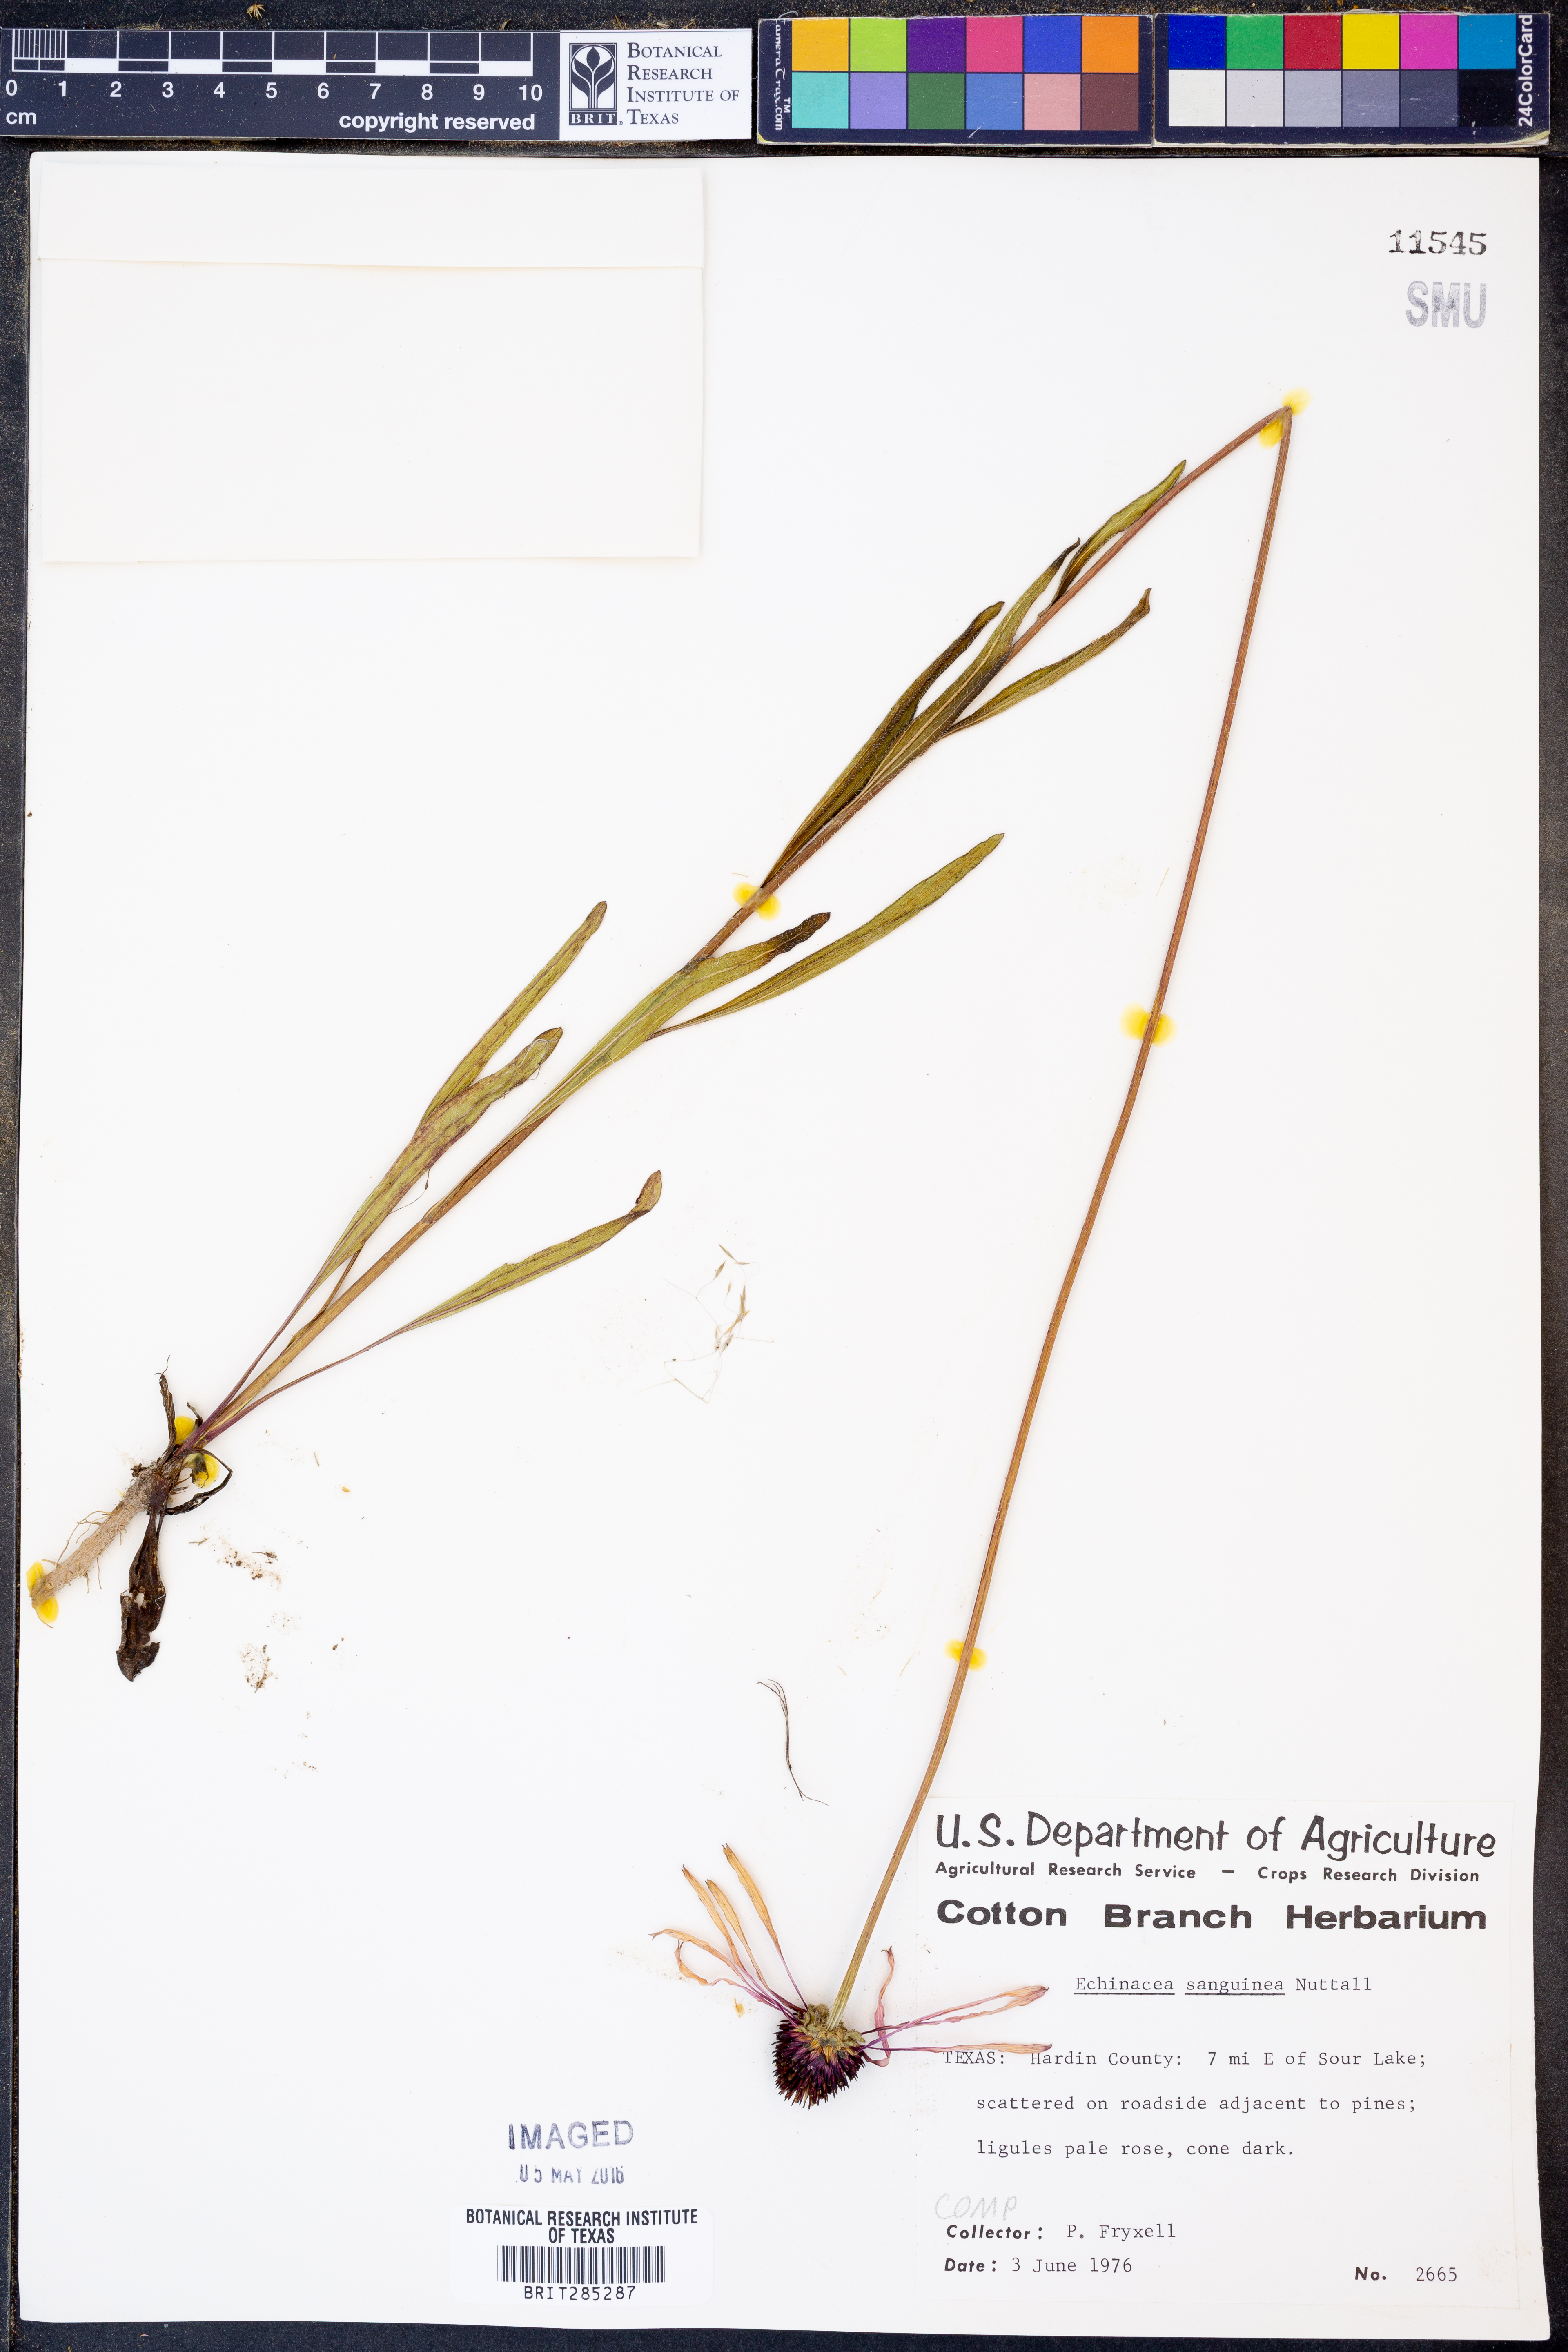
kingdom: Plantae
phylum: Tracheophyta
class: Magnoliopsida
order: Asterales
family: Asteraceae
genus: Echinacea
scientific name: Echinacea sanguinea
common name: Sanguine purple-coneflower
